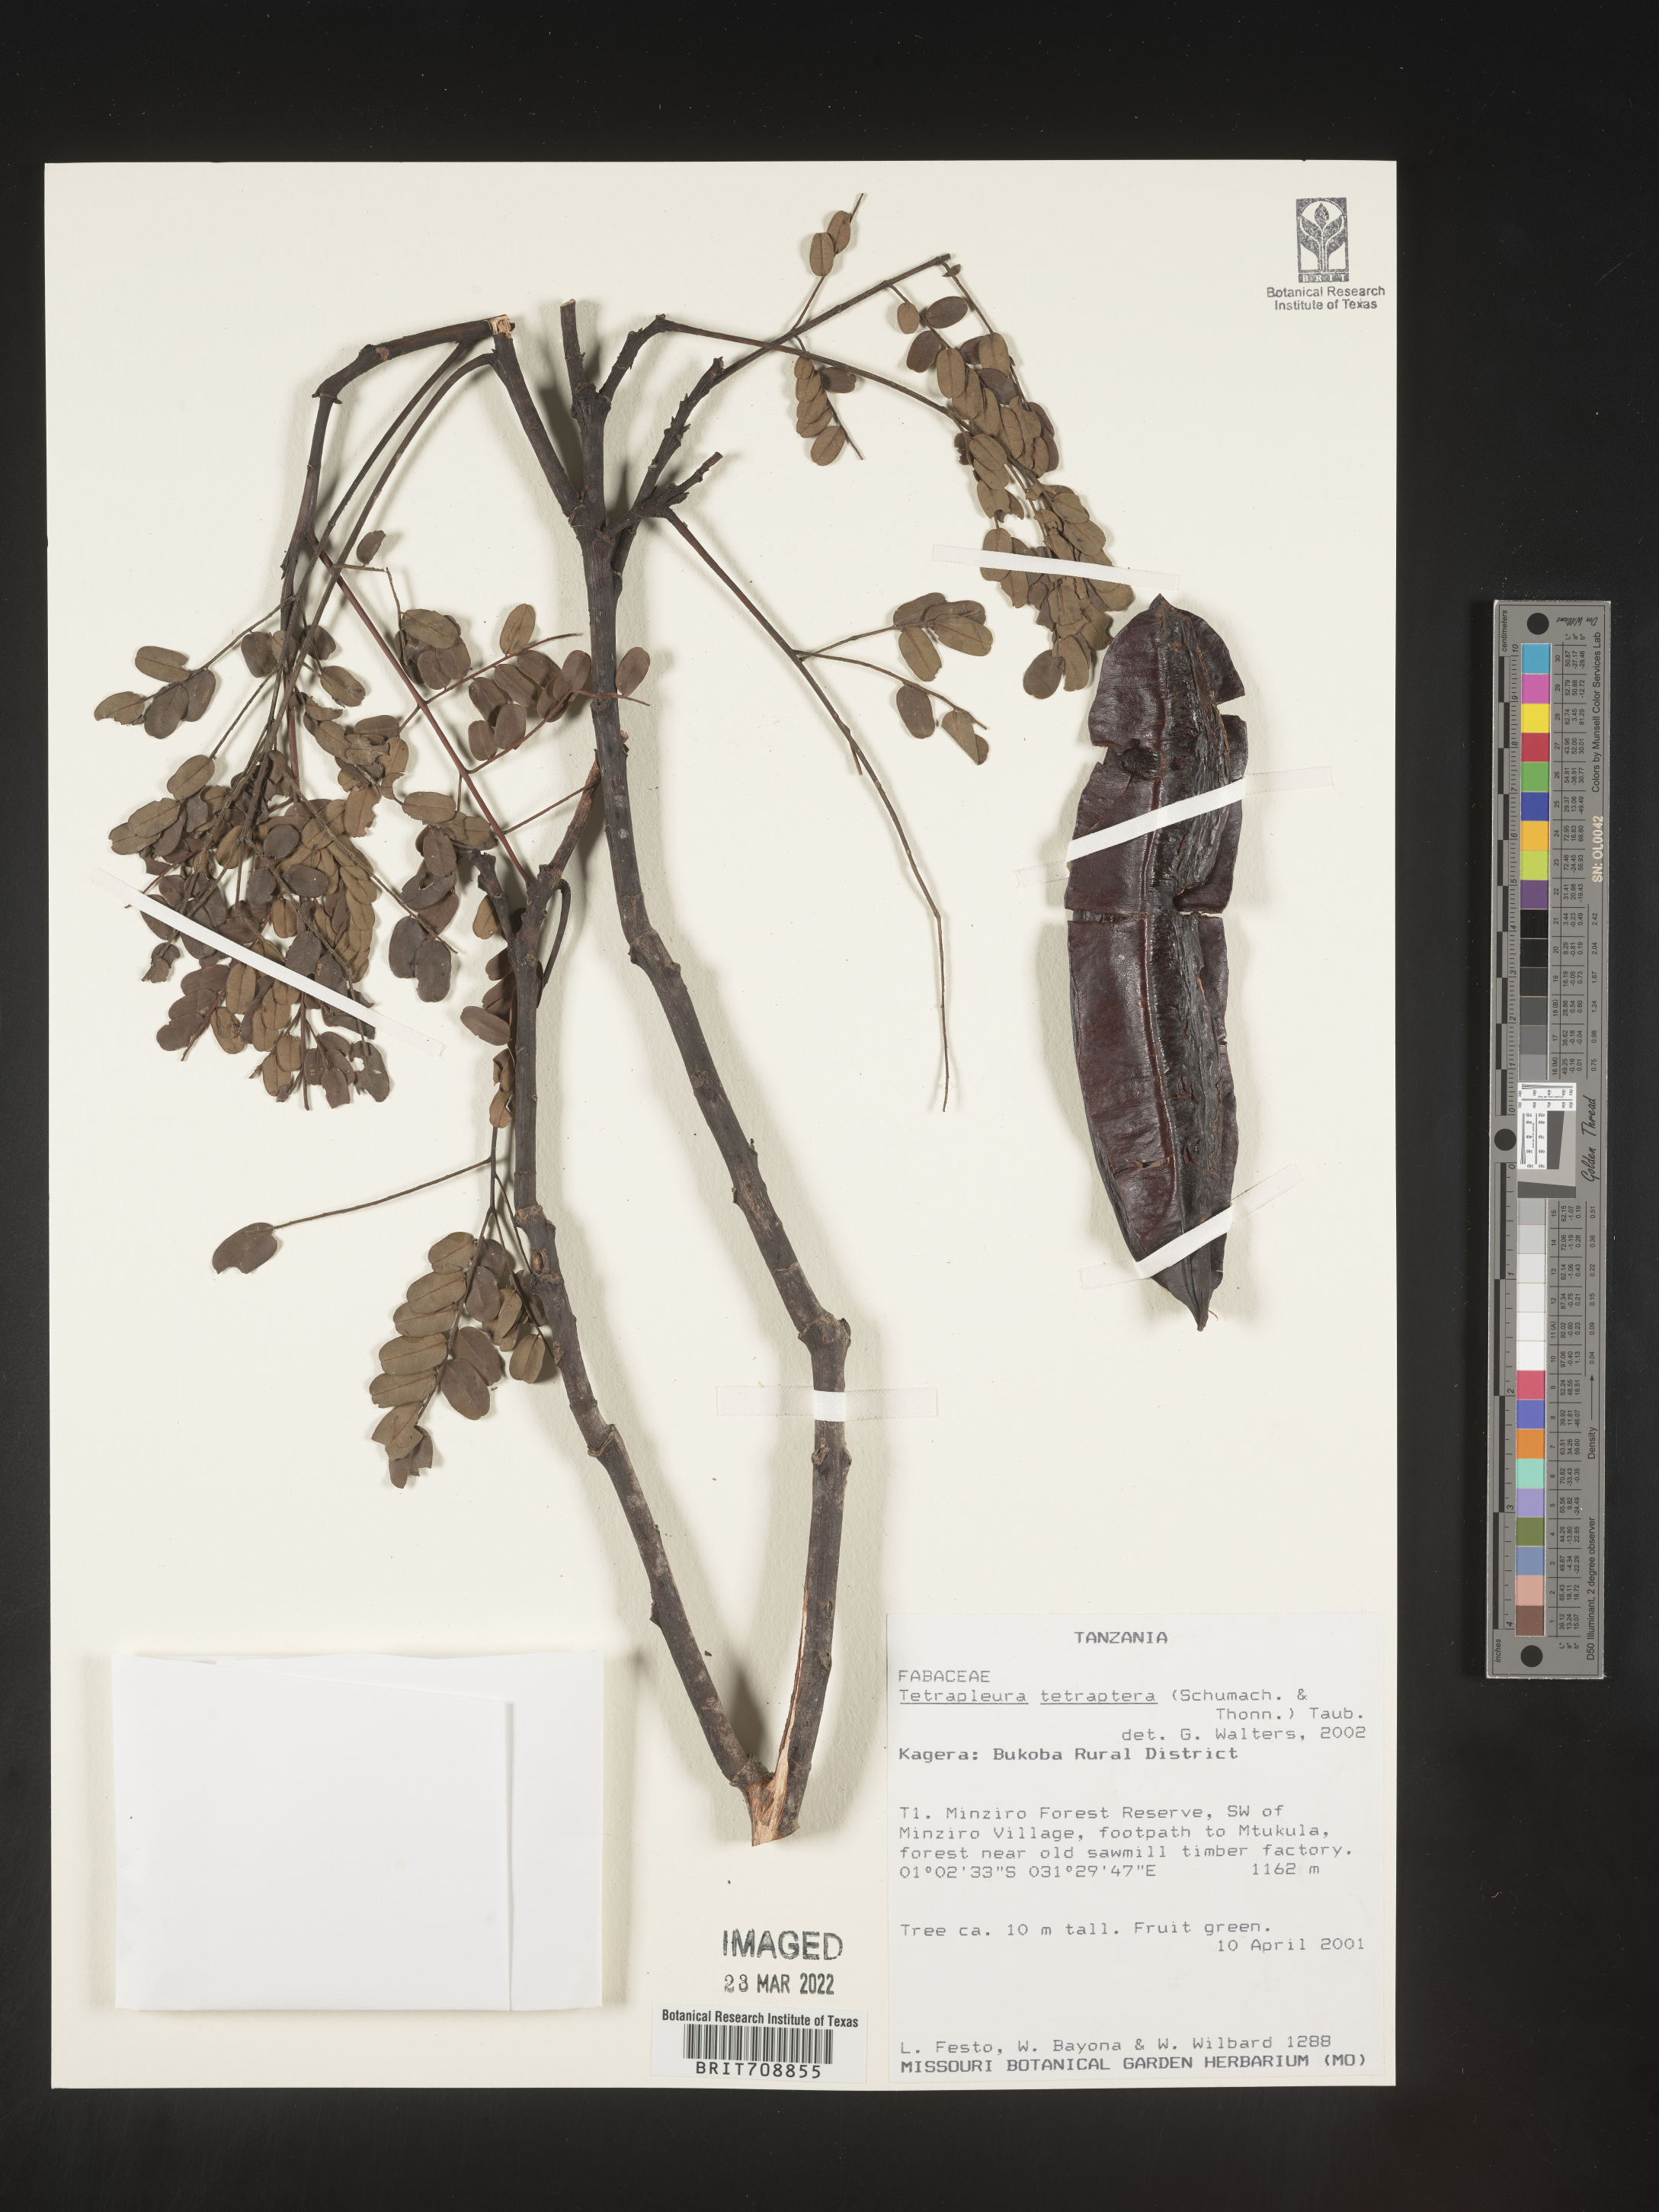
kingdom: Plantae
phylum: Tracheophyta
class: Magnoliopsida
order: Fabales
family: Fabaceae
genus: Tetrapleura
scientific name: Tetrapleura
